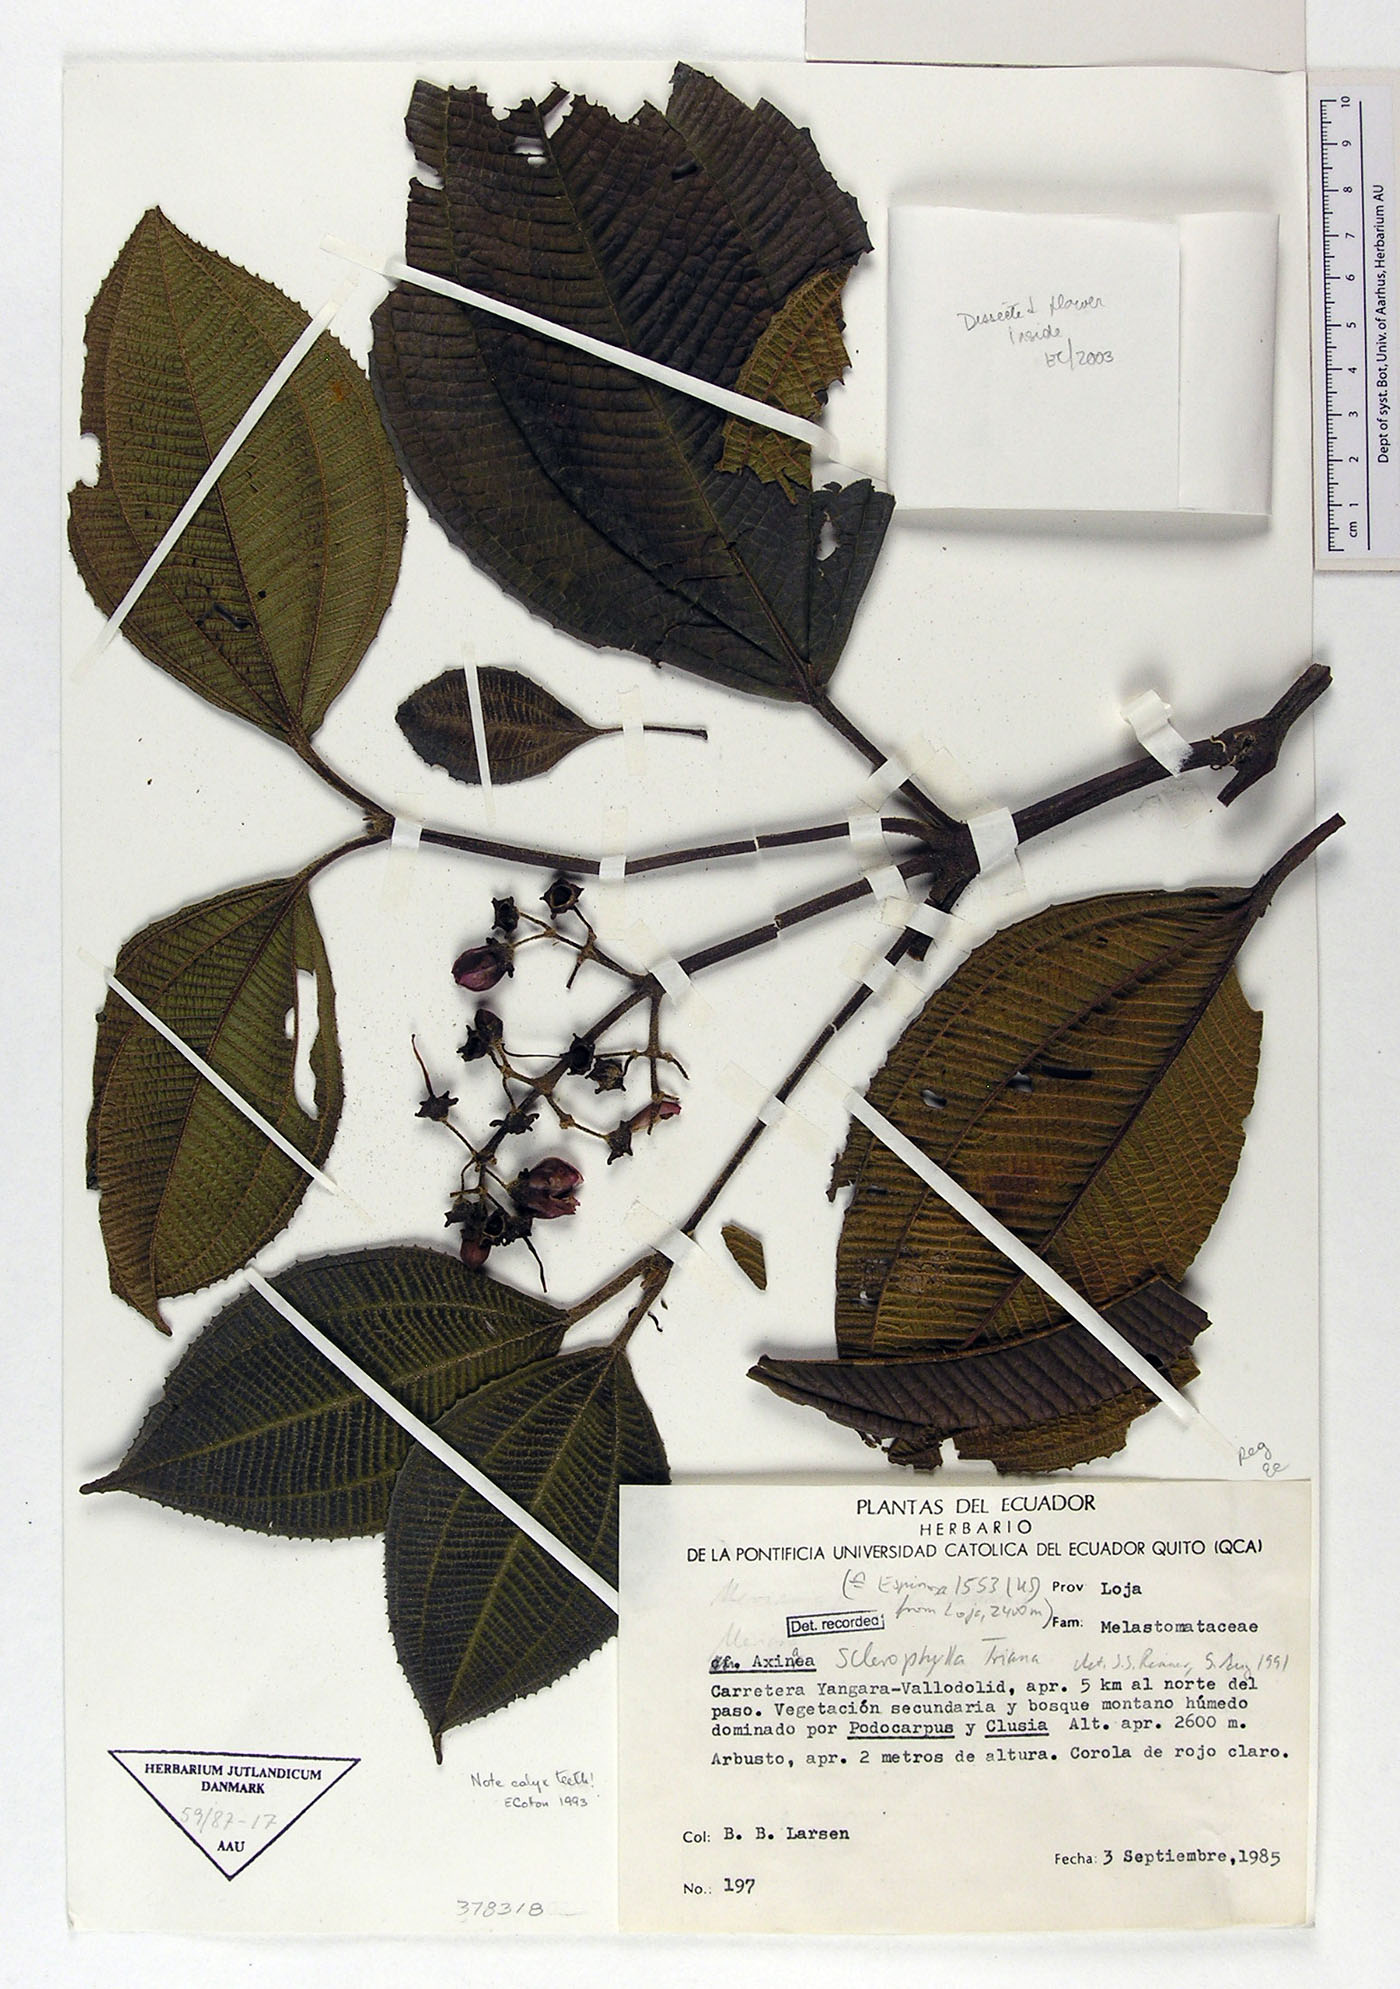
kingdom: Plantae
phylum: Tracheophyta
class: Magnoliopsida
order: Myrtales
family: Melastomataceae
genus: Axinaea
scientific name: Axinaea dentata
